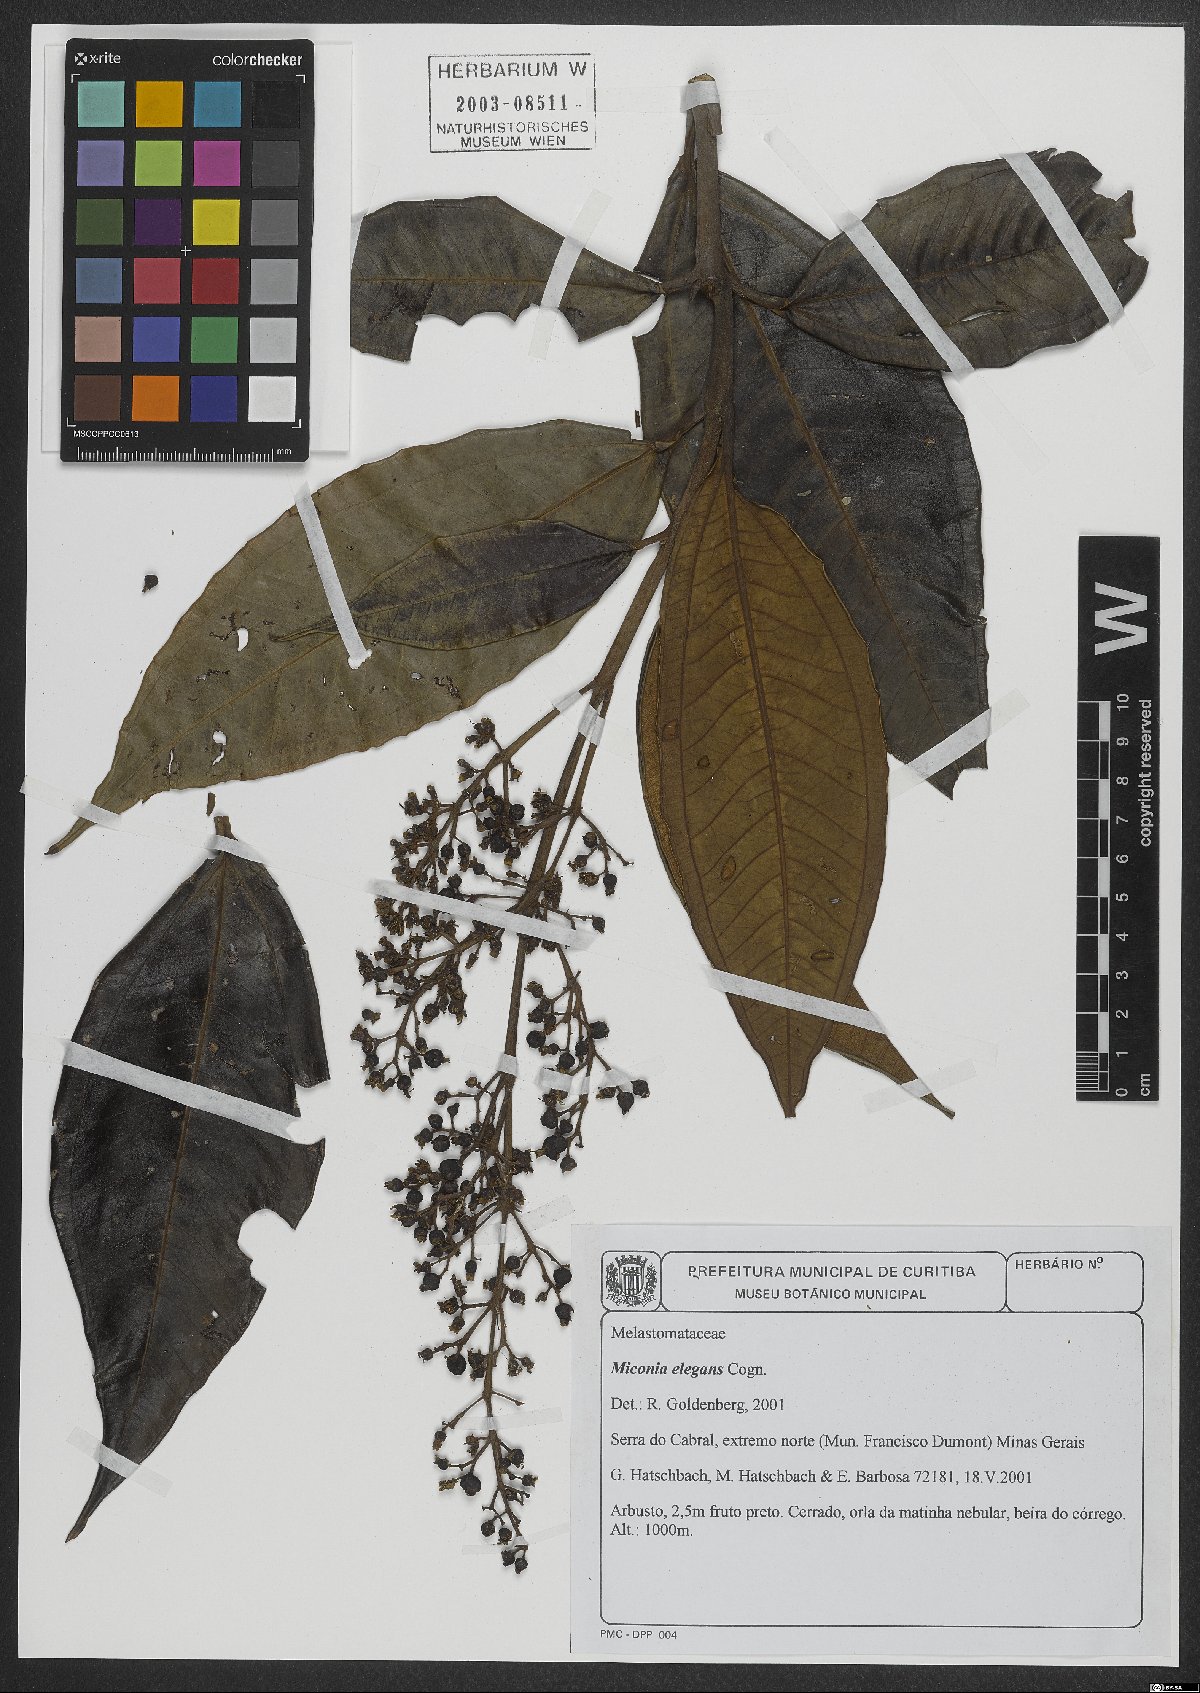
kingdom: Plantae
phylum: Tracheophyta
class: Magnoliopsida
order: Myrtales
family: Melastomataceae
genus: Miconia
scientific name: Miconia elegans
